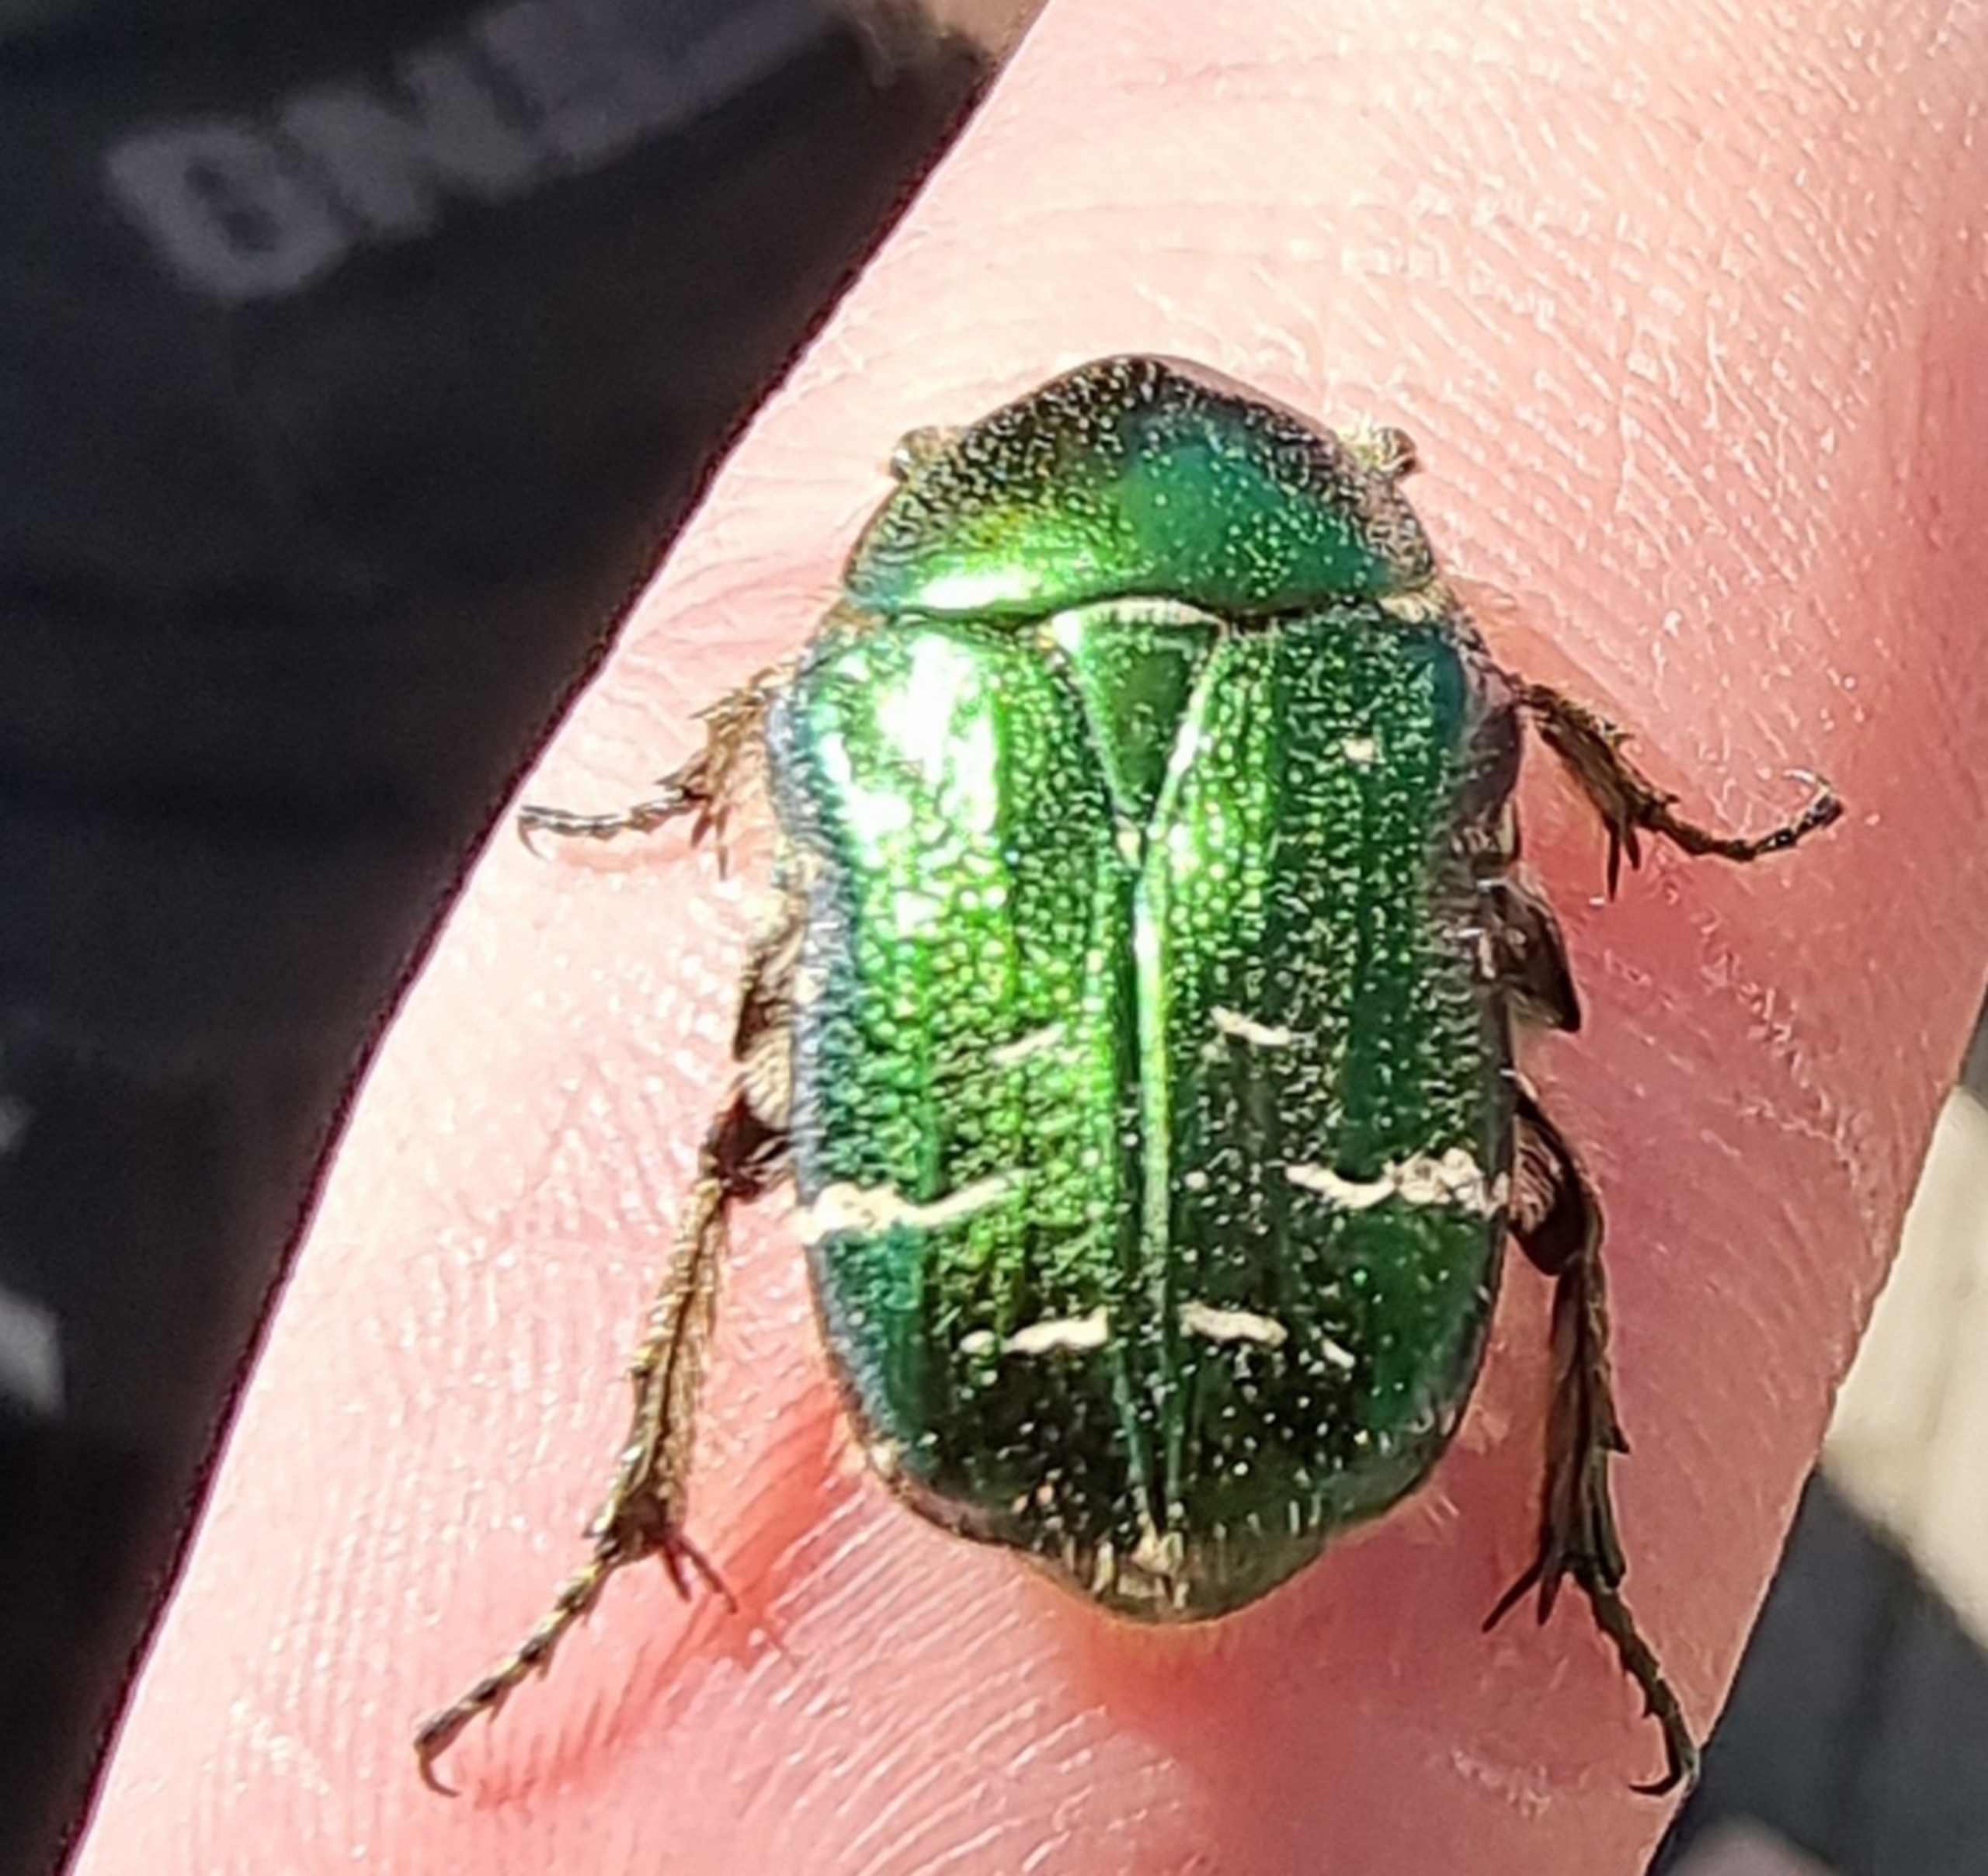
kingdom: Animalia
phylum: Arthropoda
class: Insecta
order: Coleoptera
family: Scarabaeidae
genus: Cetonia
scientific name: Cetonia aurata
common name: Grøn guldbasse
